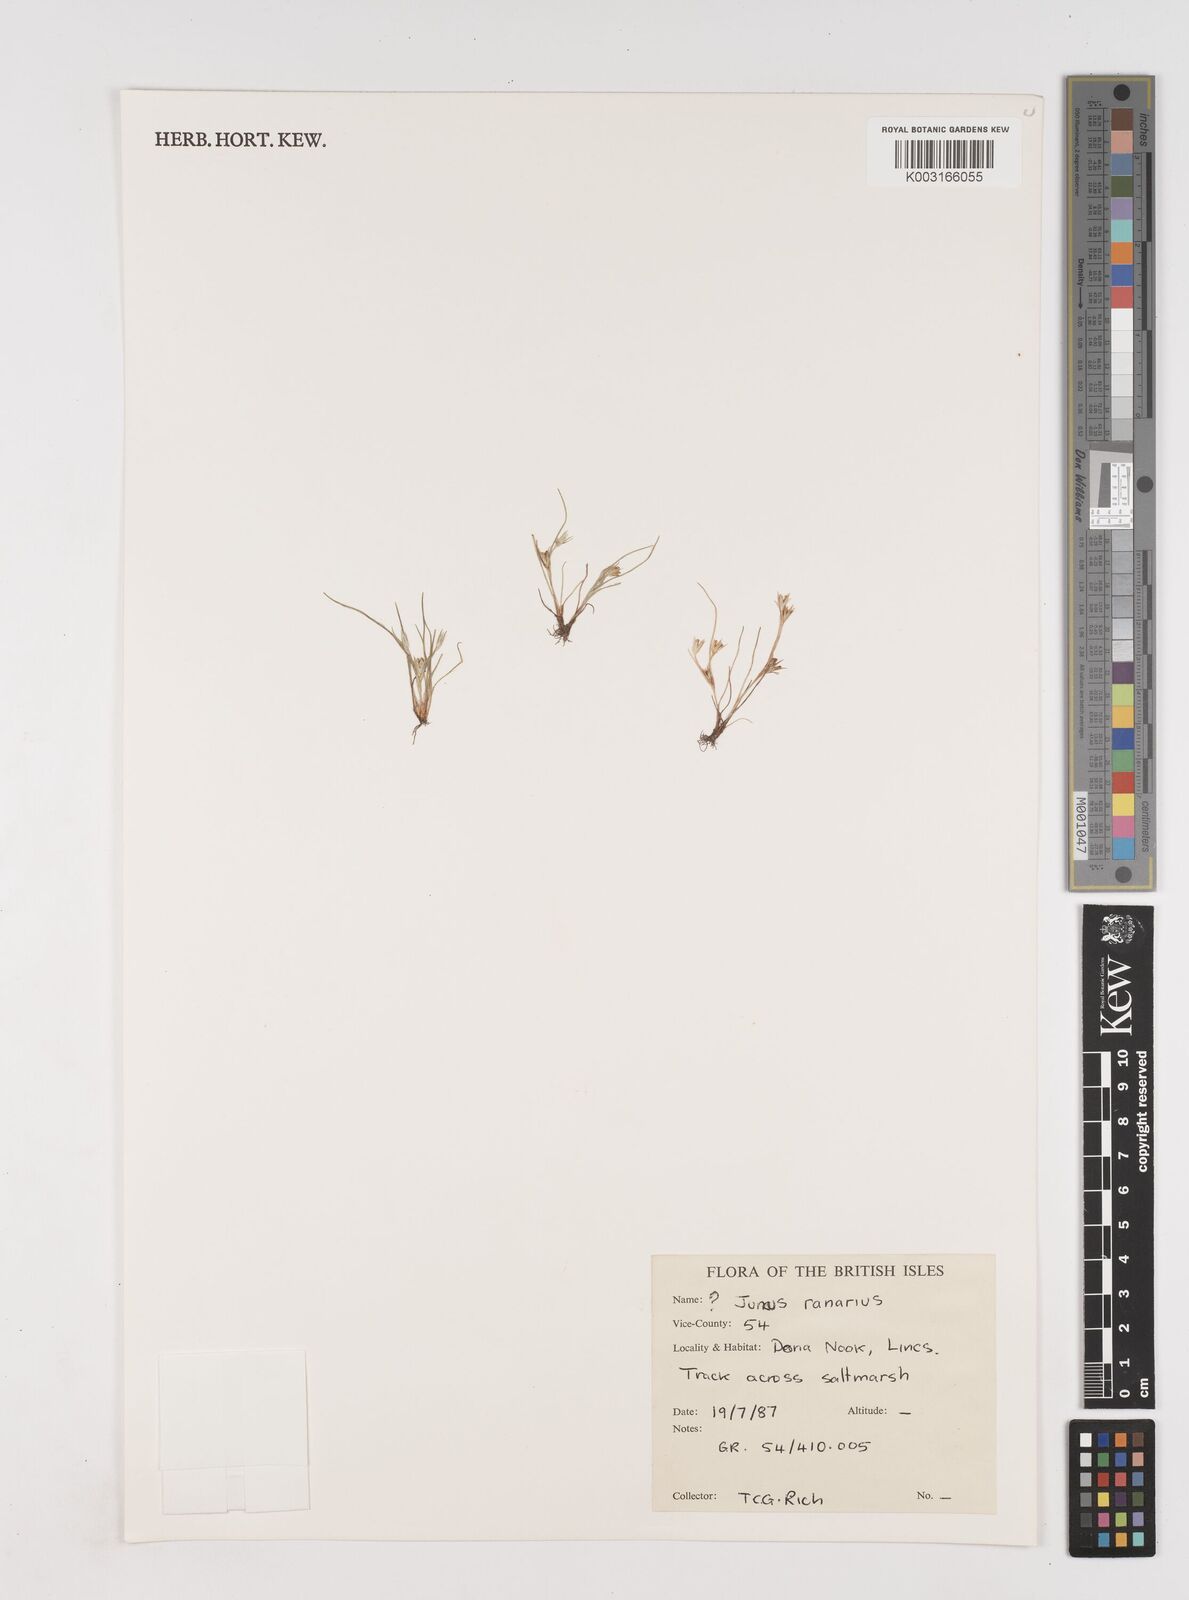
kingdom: Plantae
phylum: Tracheophyta
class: Liliopsida
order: Poales
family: Juncaceae
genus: Juncus
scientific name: Juncus hybridus
